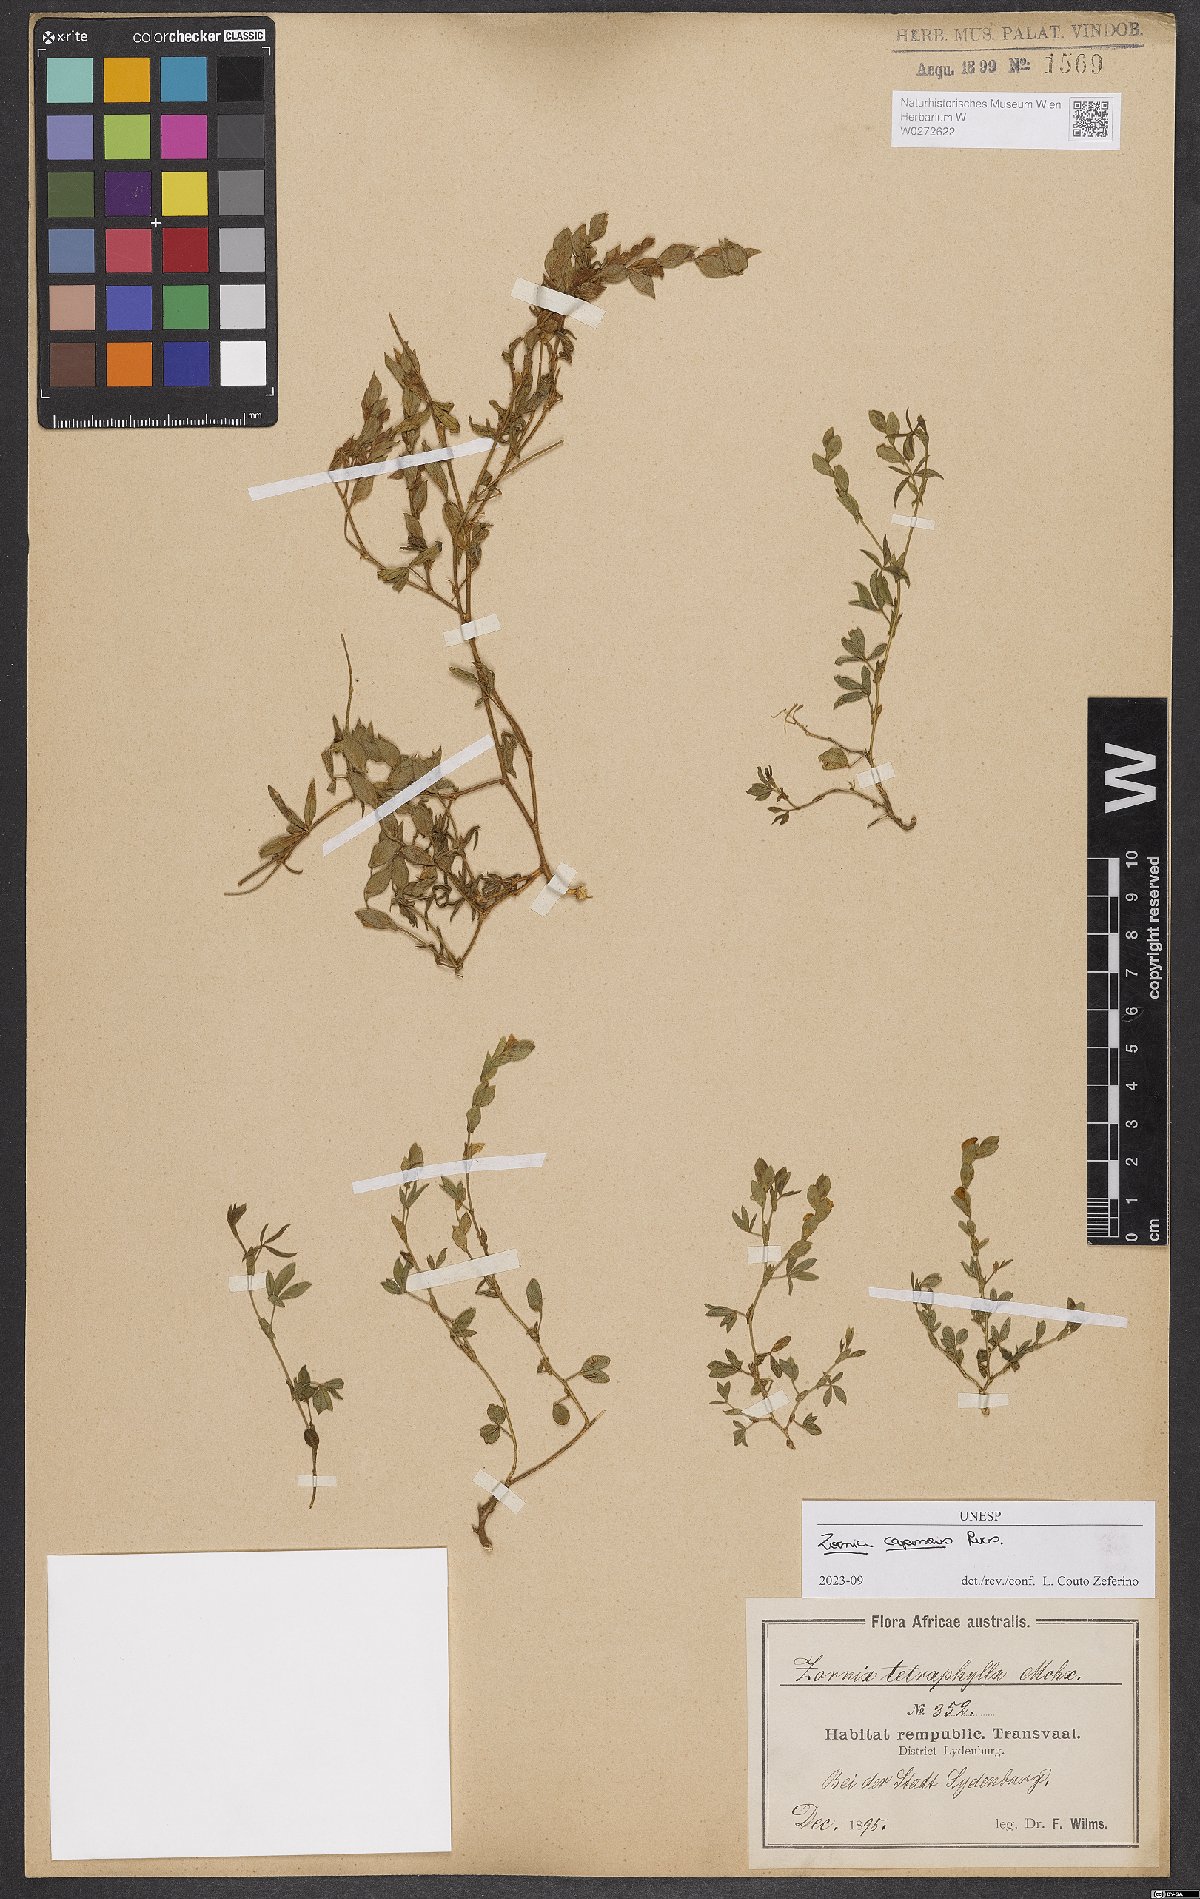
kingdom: Plantae
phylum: Tracheophyta
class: Magnoliopsida
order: Fabales
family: Fabaceae
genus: Zornia
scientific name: Zornia capensis
